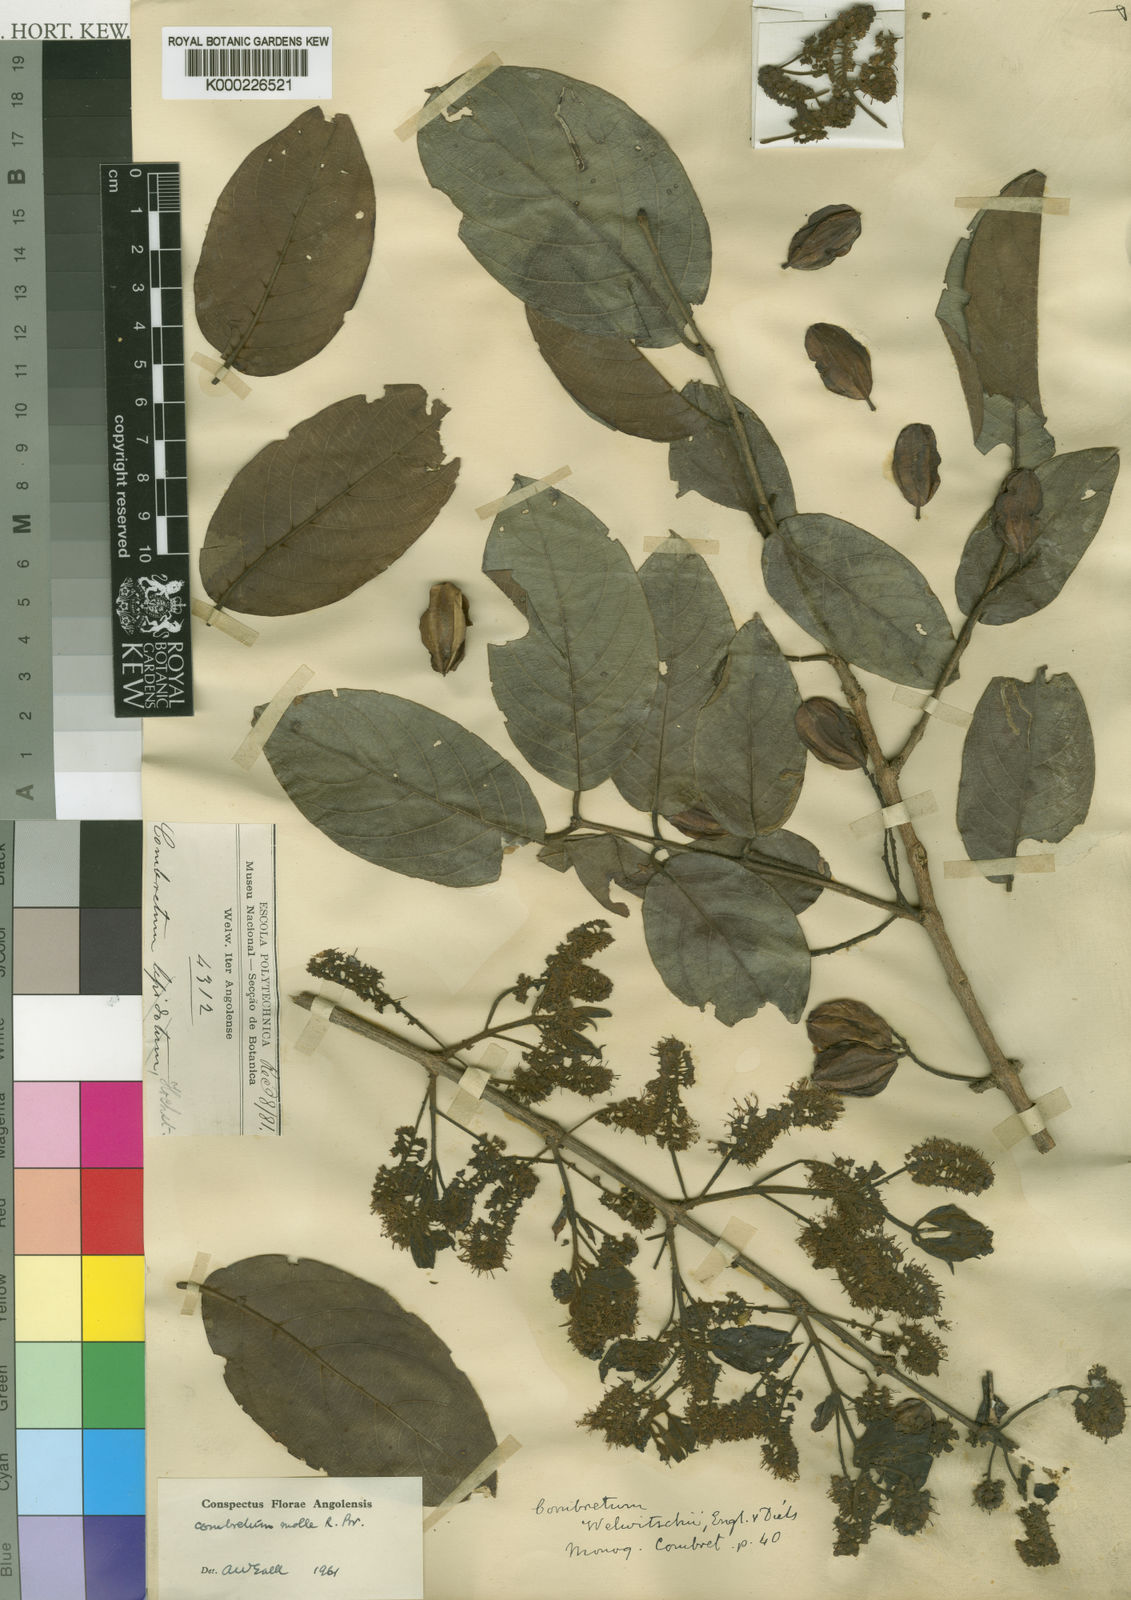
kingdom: Plantae
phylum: Tracheophyta
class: Magnoliopsida
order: Myrtales
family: Combretaceae
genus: Combretum
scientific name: Combretum molle
